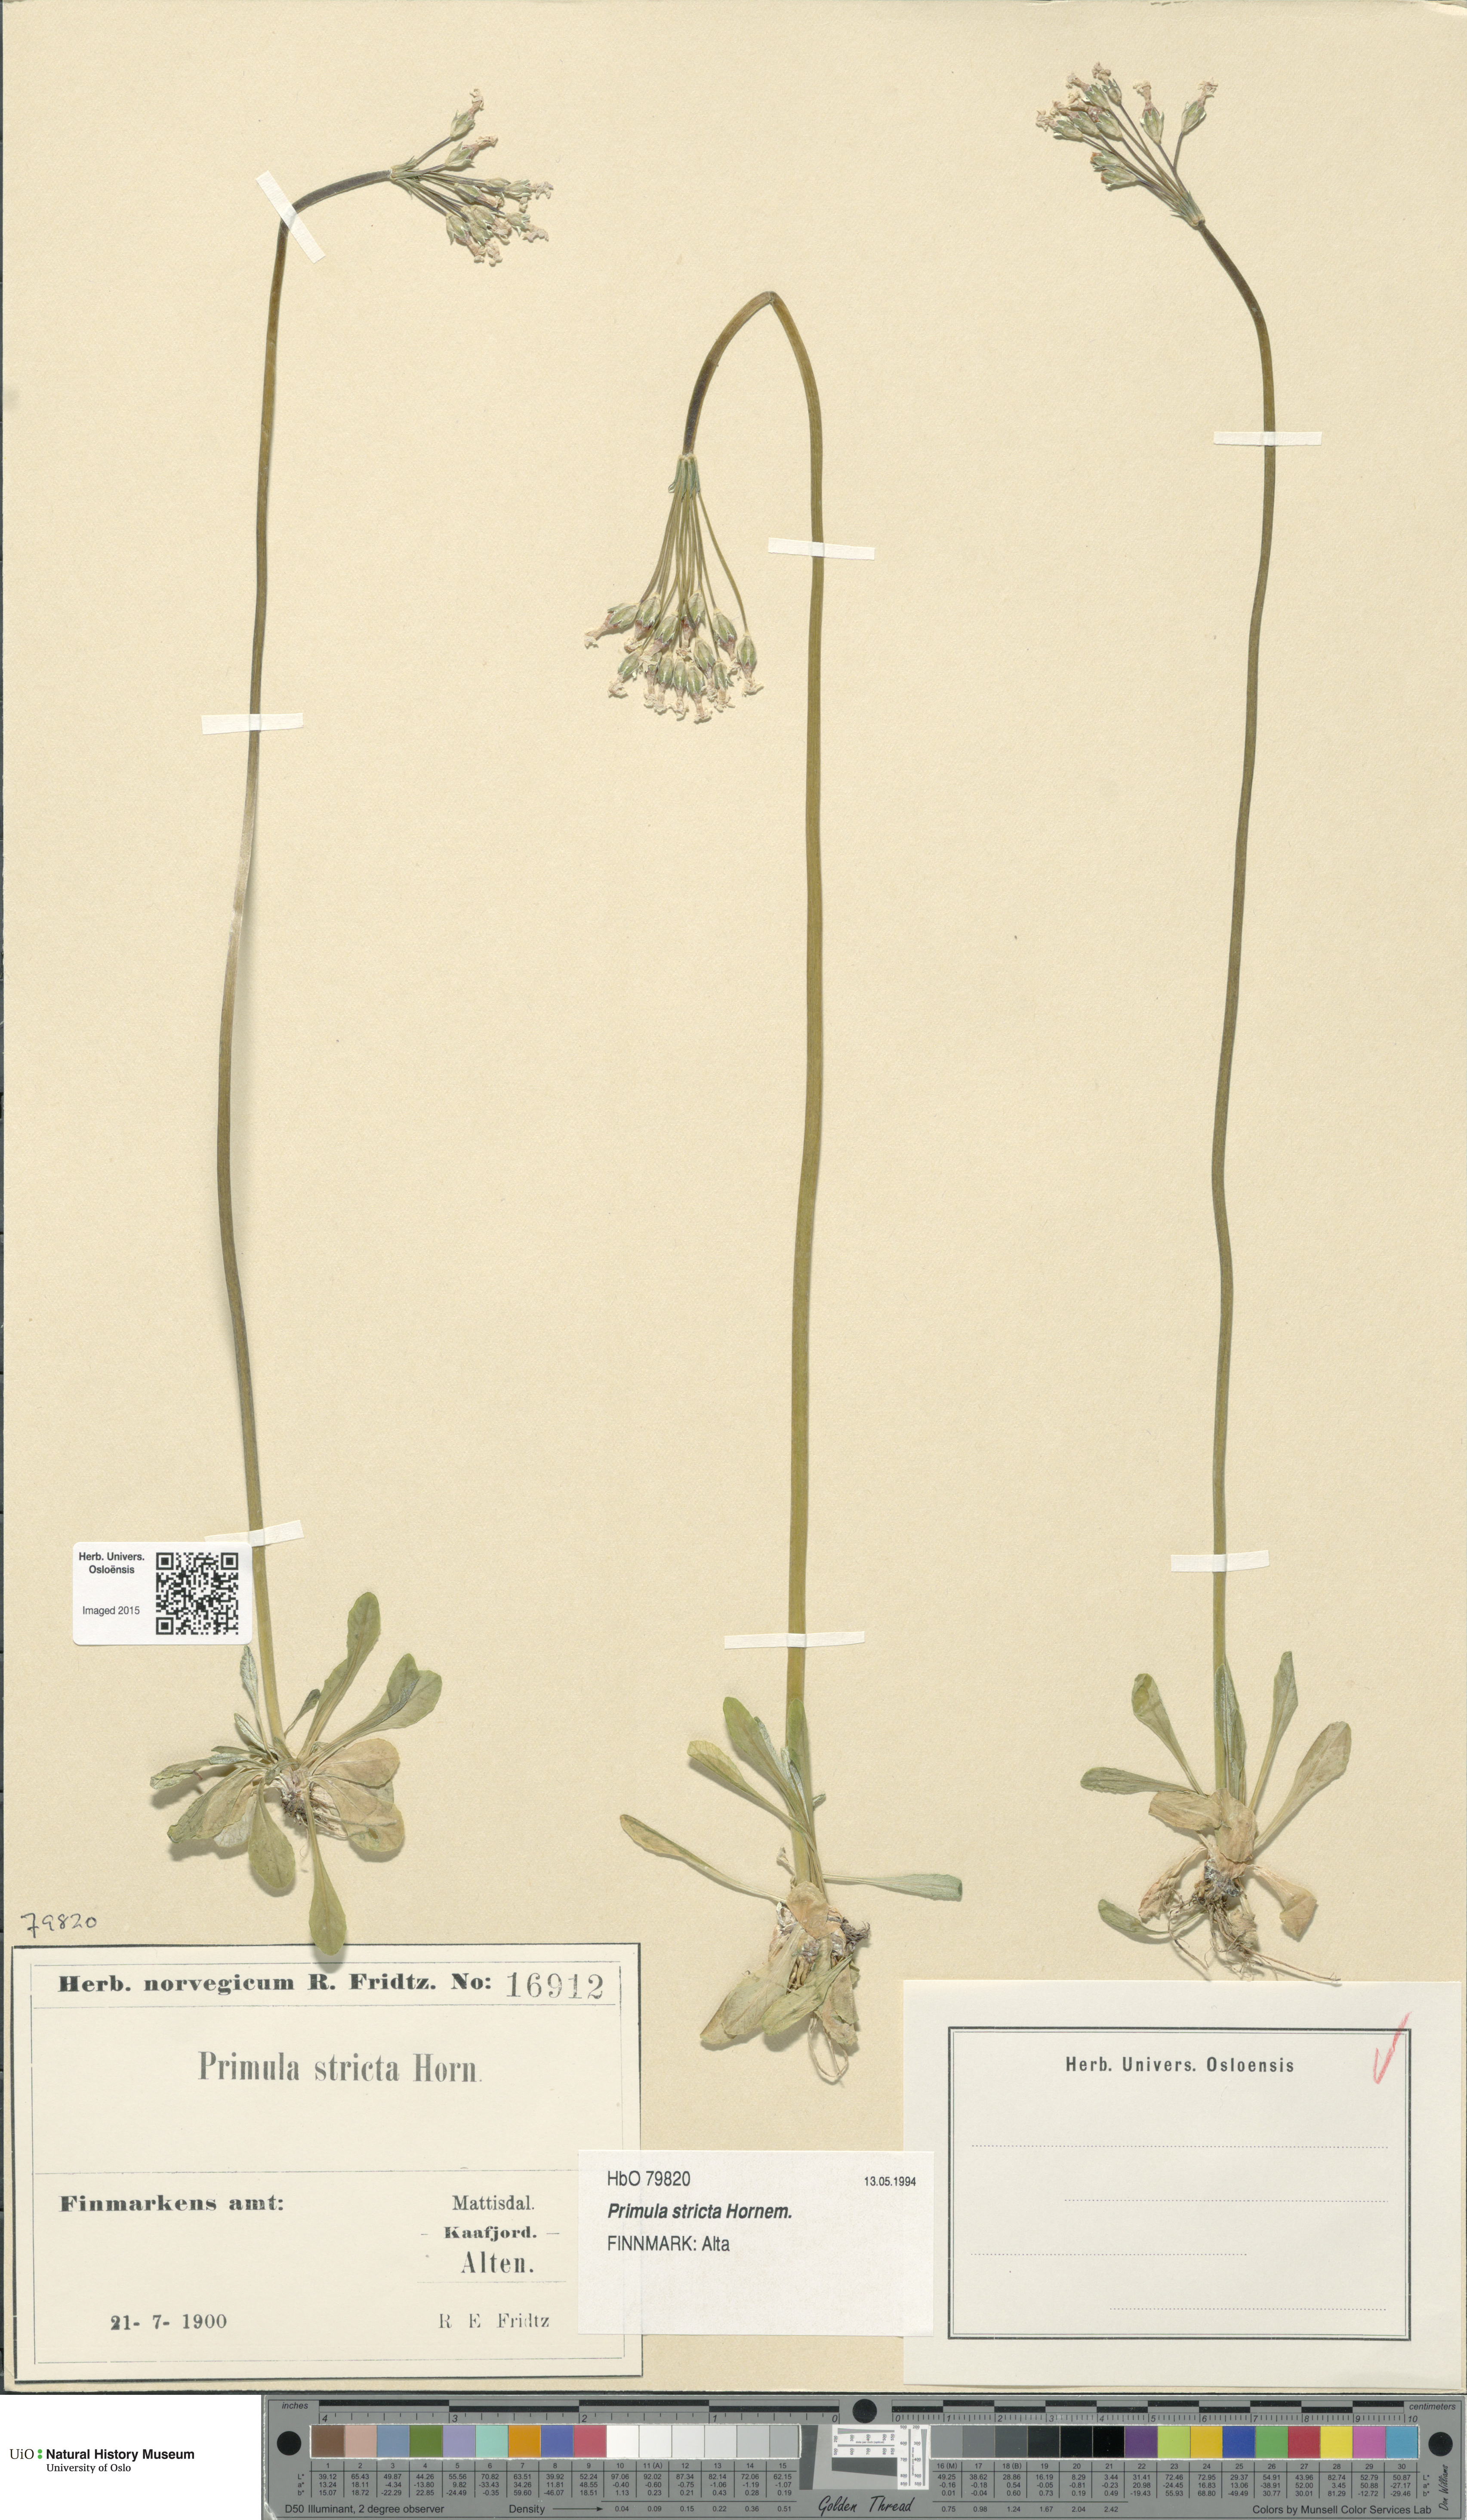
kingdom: Plantae
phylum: Tracheophyta
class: Magnoliopsida
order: Ericales
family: Primulaceae
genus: Primula
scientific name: Primula stricta
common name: Coastal primrose
